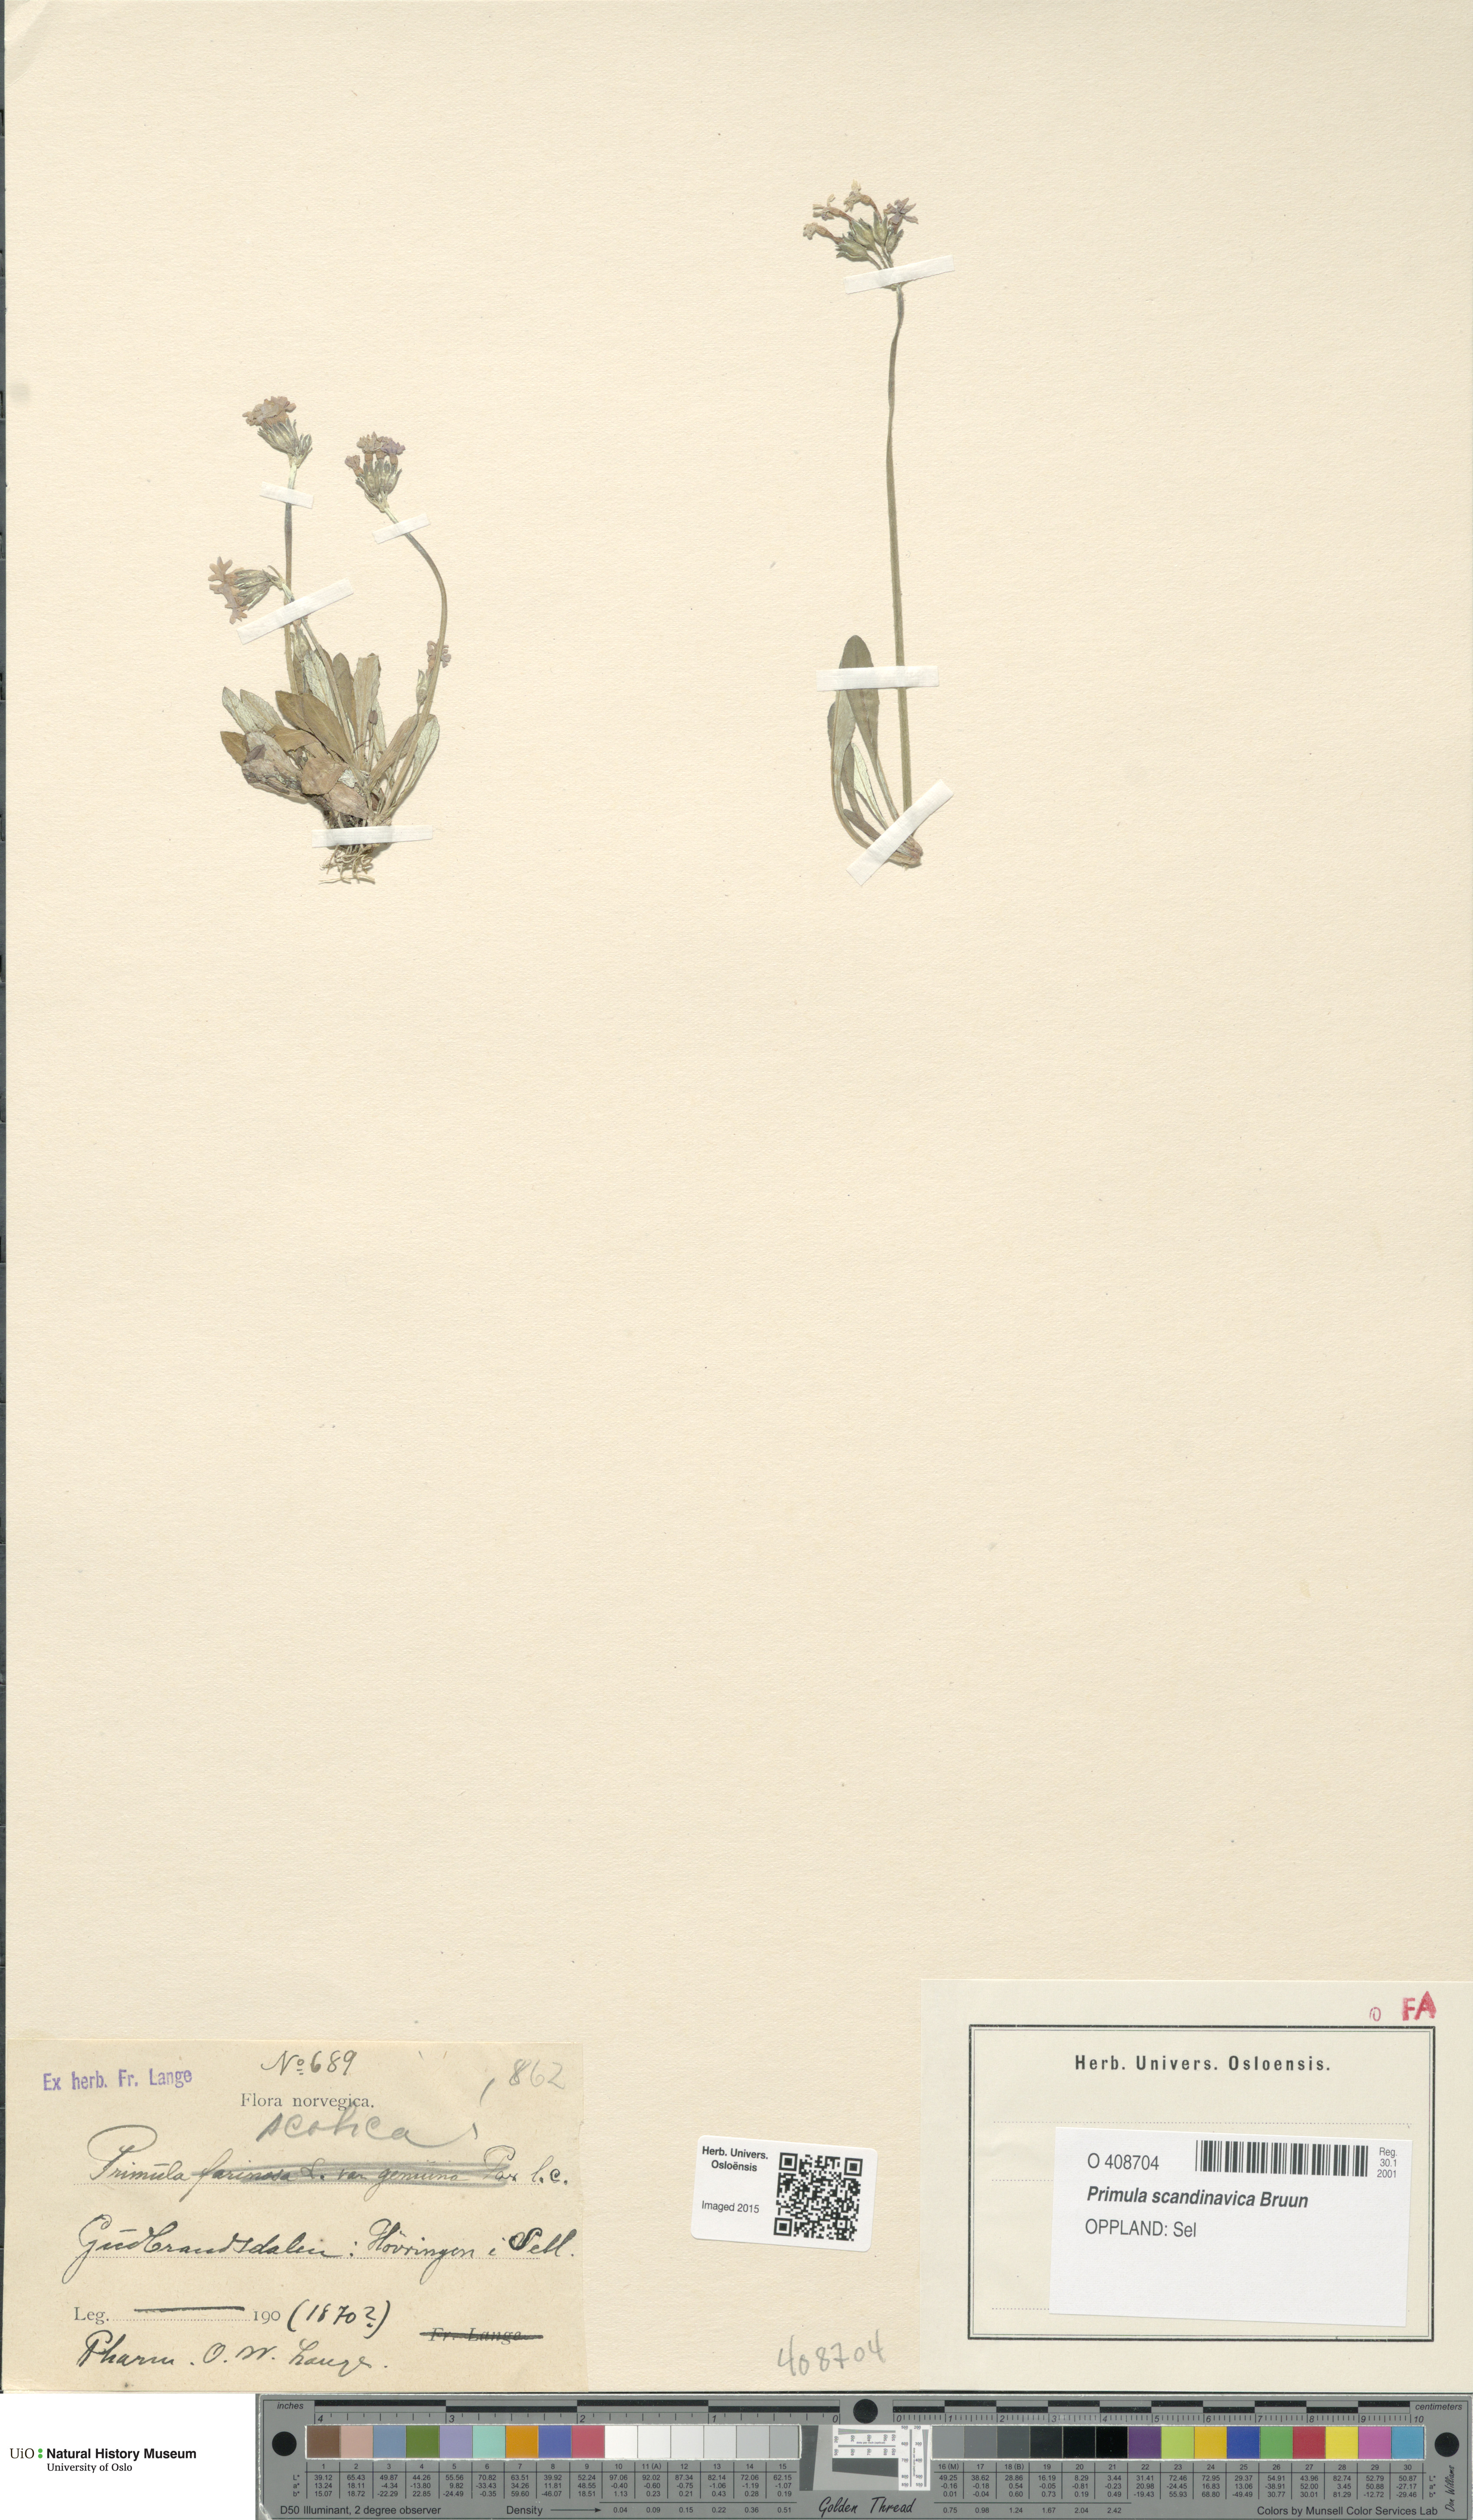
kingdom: Plantae
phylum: Tracheophyta
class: Magnoliopsida
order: Ericales
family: Primulaceae
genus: Primula
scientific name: Primula scandinavica
